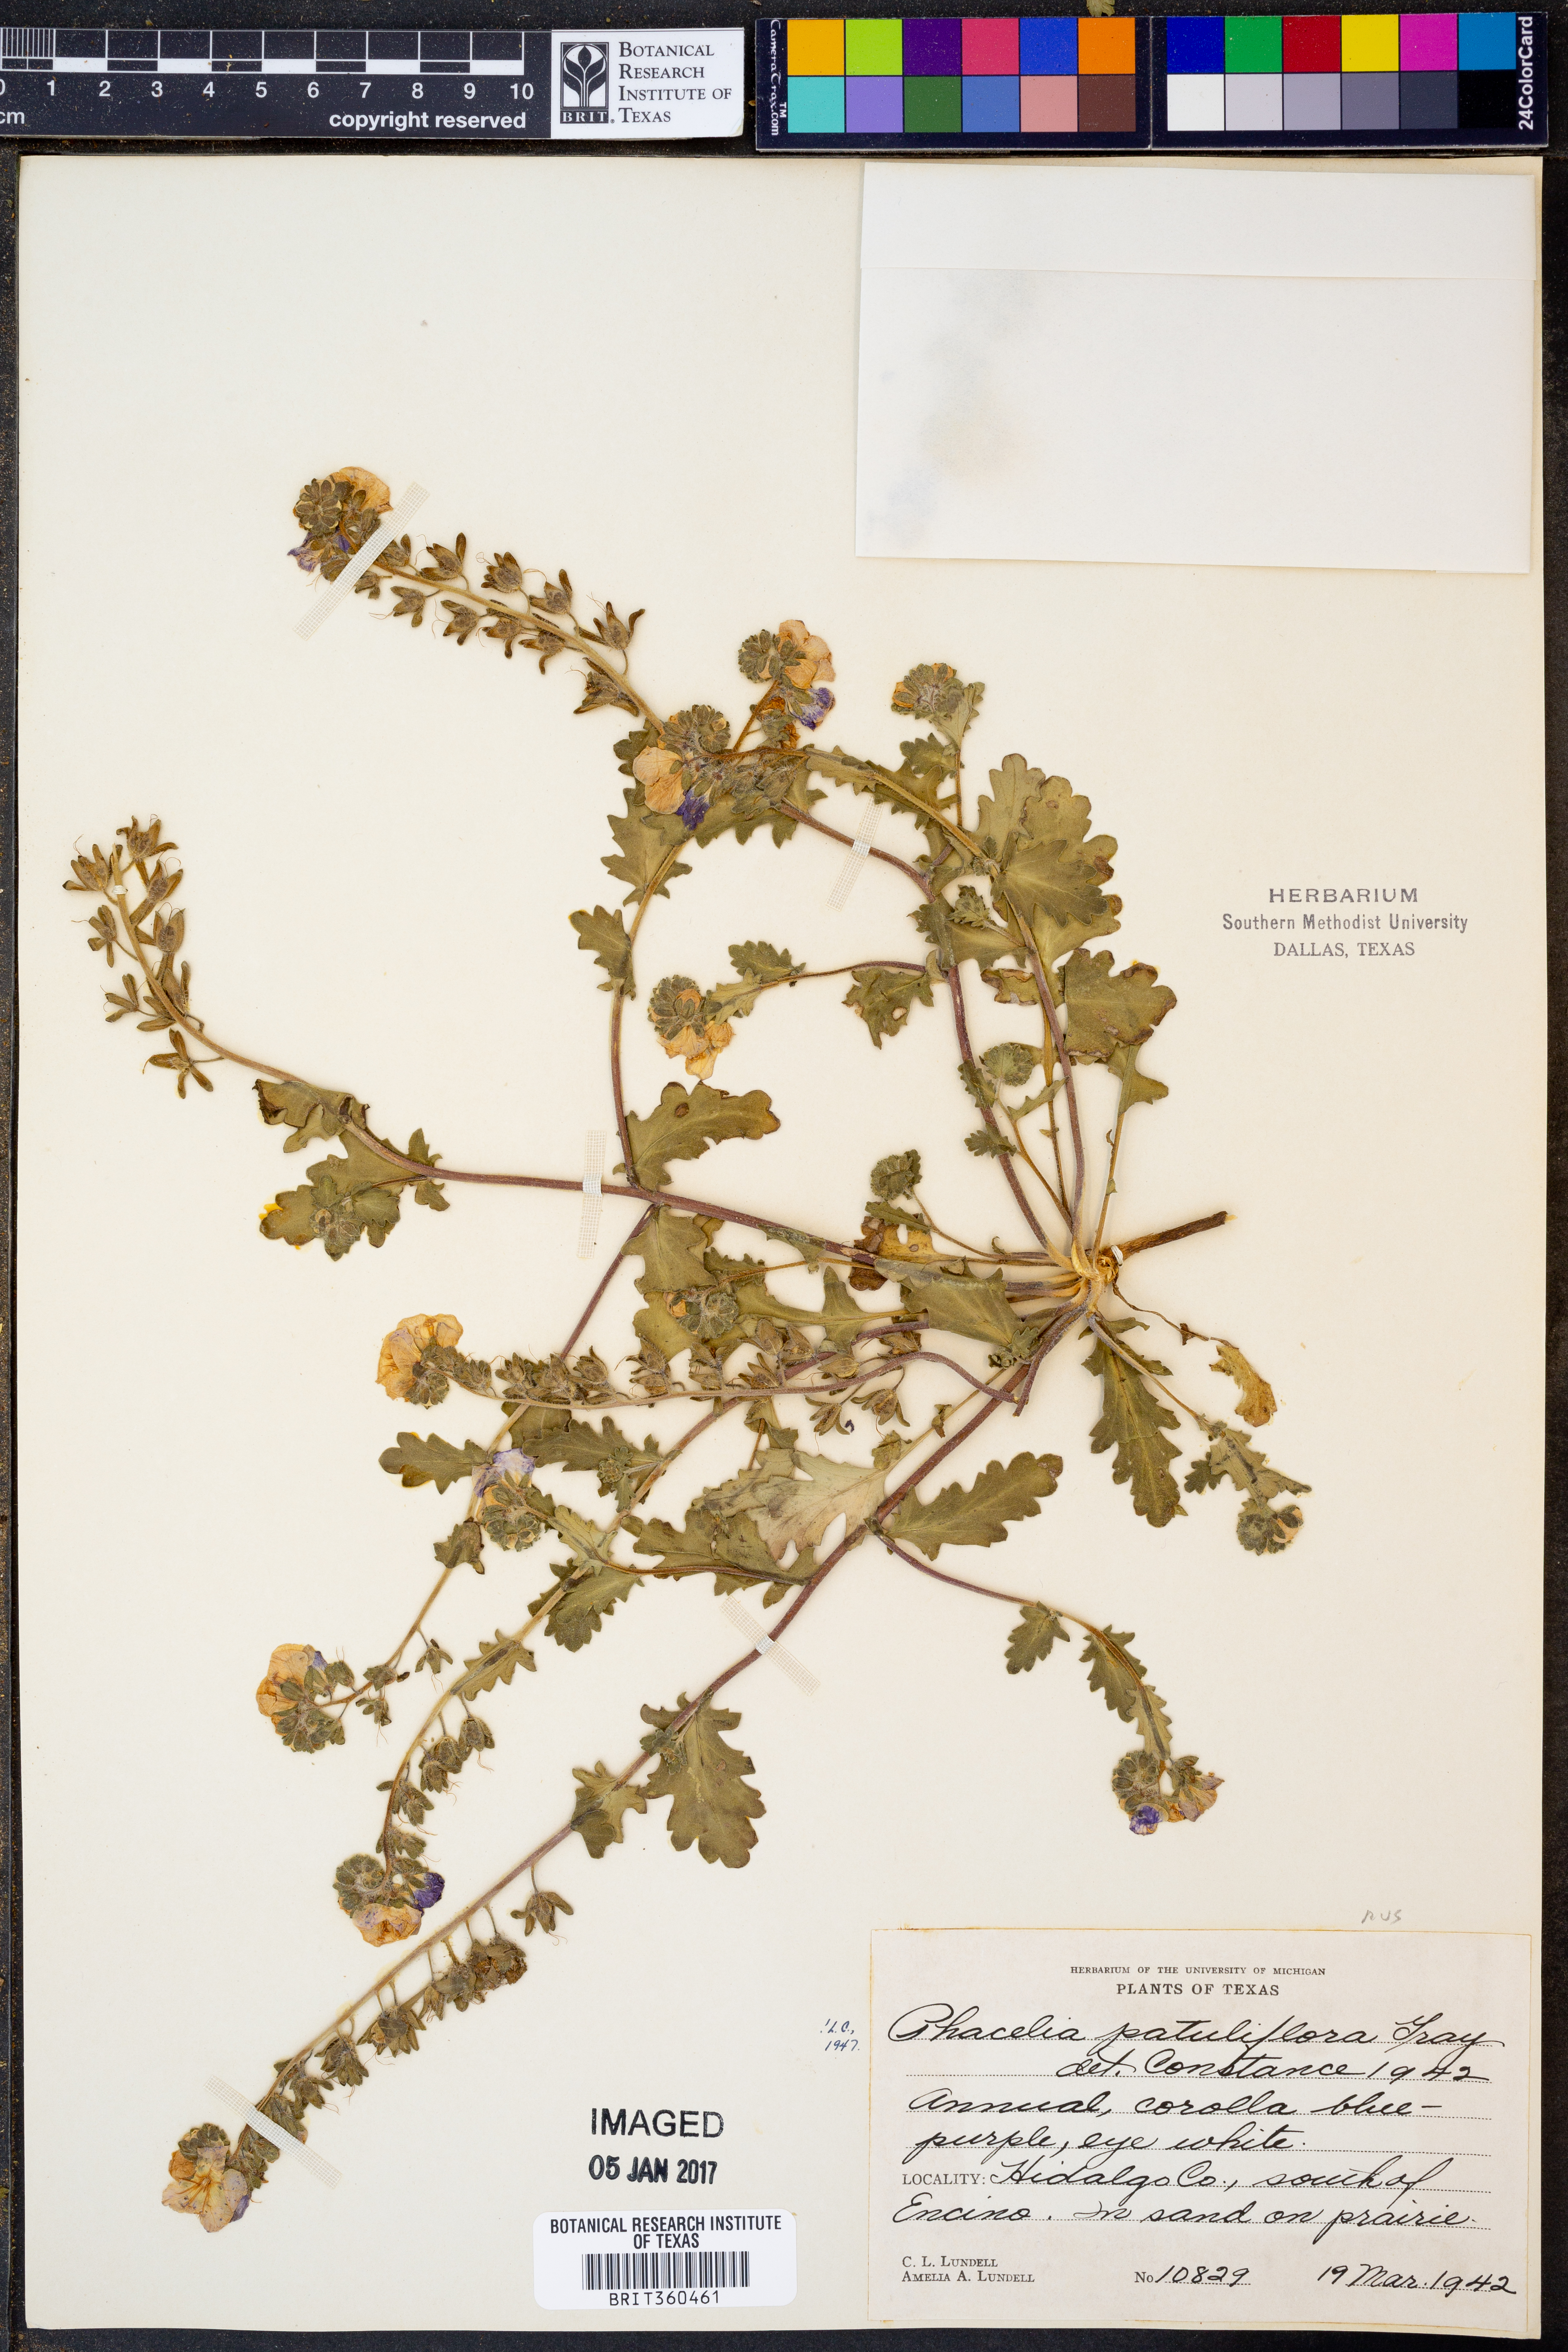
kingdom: Plantae
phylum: Tracheophyta
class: Magnoliopsida
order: Boraginales
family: Hydrophyllaceae
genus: Phacelia
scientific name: Phacelia patuliflora
